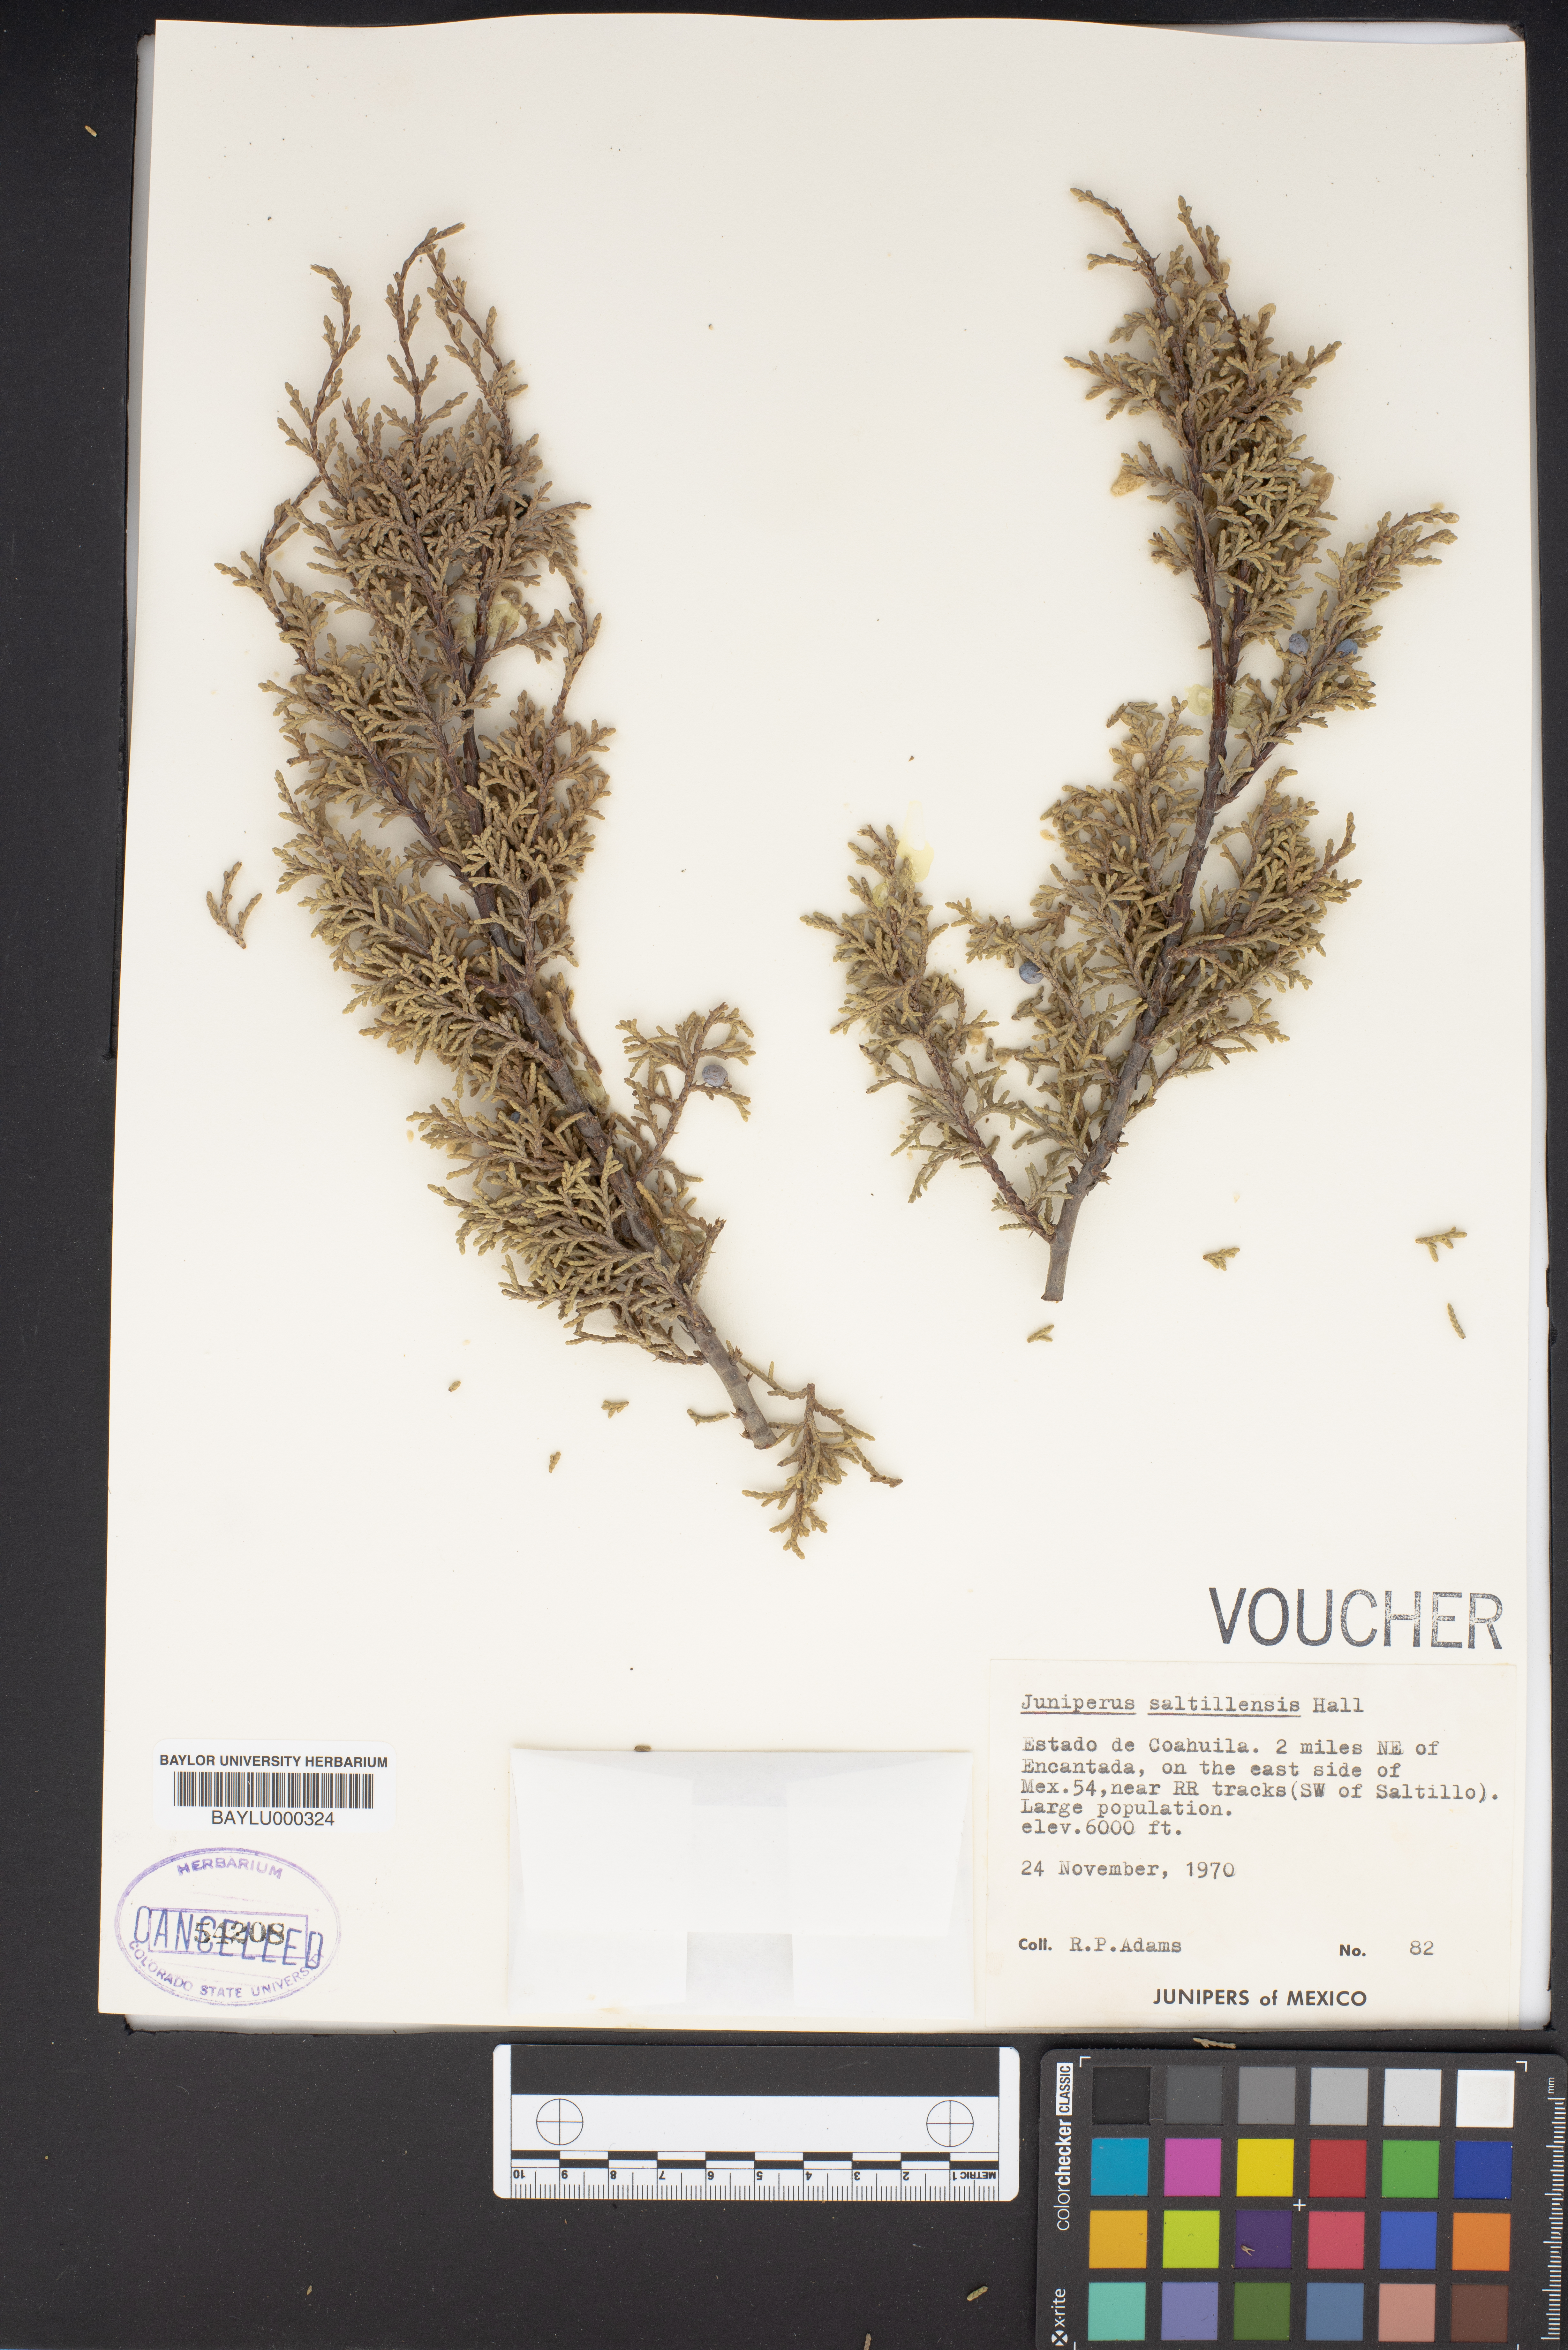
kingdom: Plantae
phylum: Tracheophyta
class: Pinopsida
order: Pinales
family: Cupressaceae
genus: Juniperus
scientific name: Juniperus saltillensis
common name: Saltillo juniper
